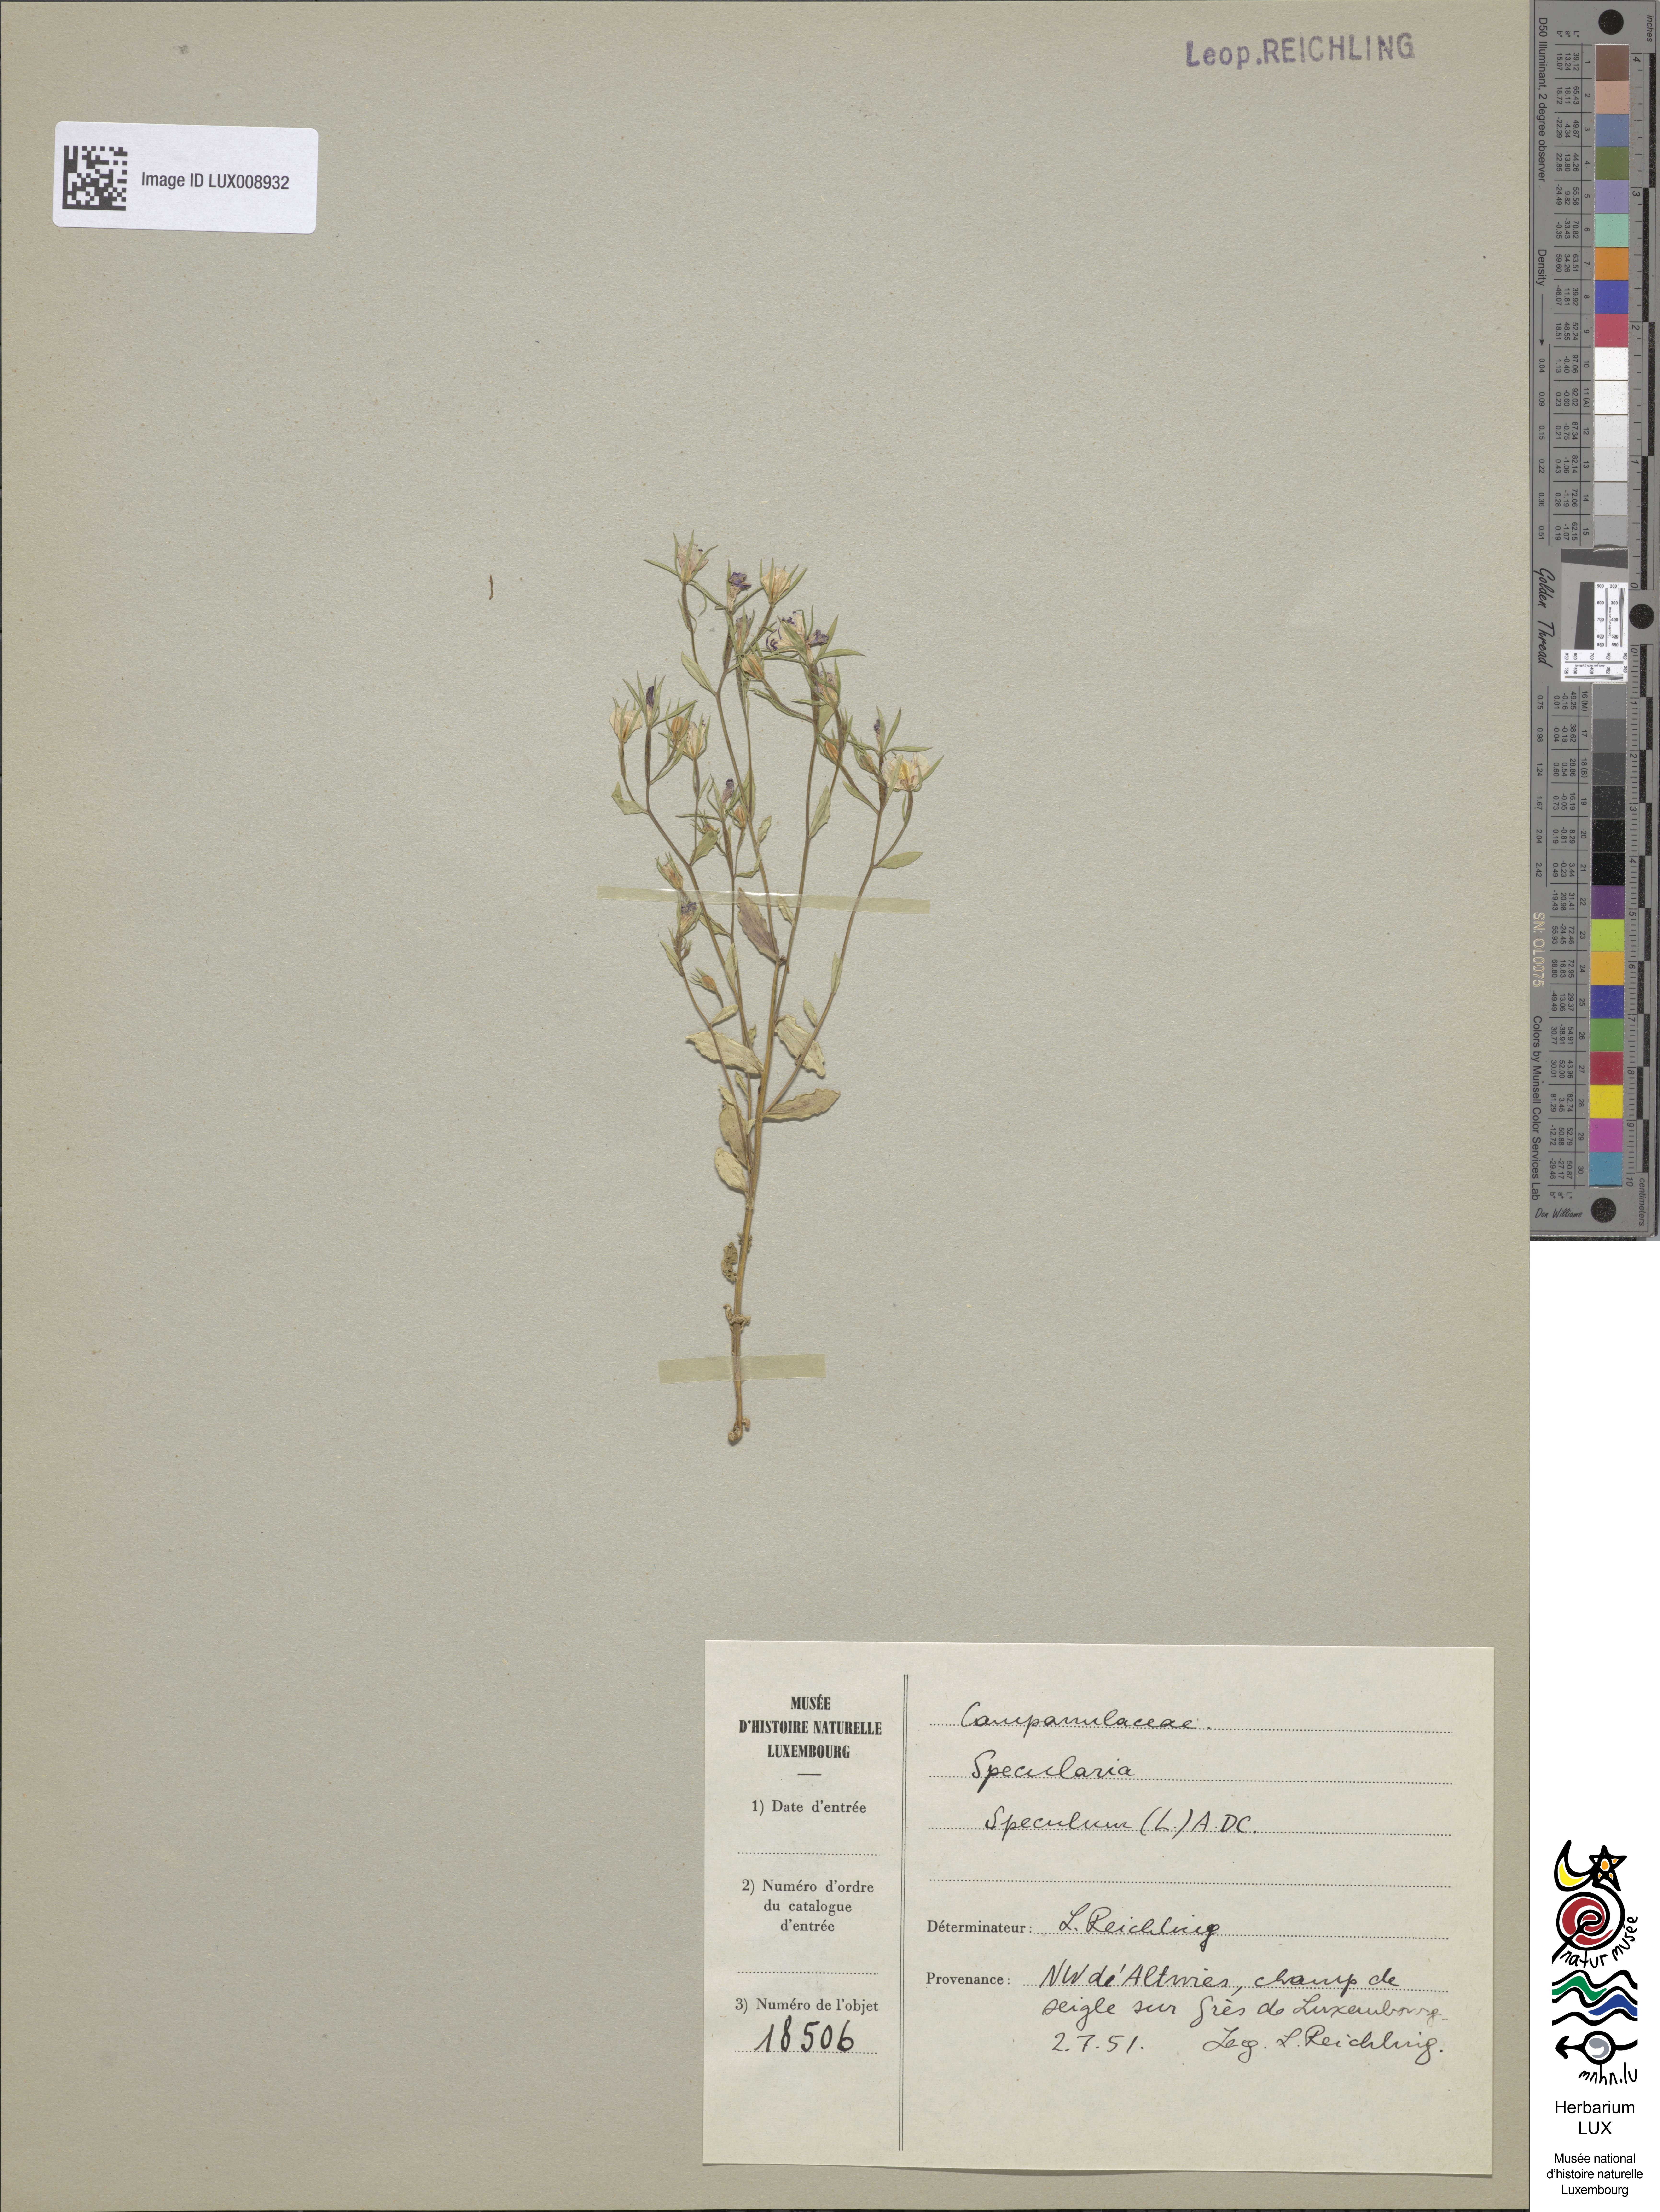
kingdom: Plantae
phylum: Tracheophyta
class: Magnoliopsida
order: Asterales
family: Campanulaceae
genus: Legousia
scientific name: Legousia speculum-veneris
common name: Large venus's-looking-glass
